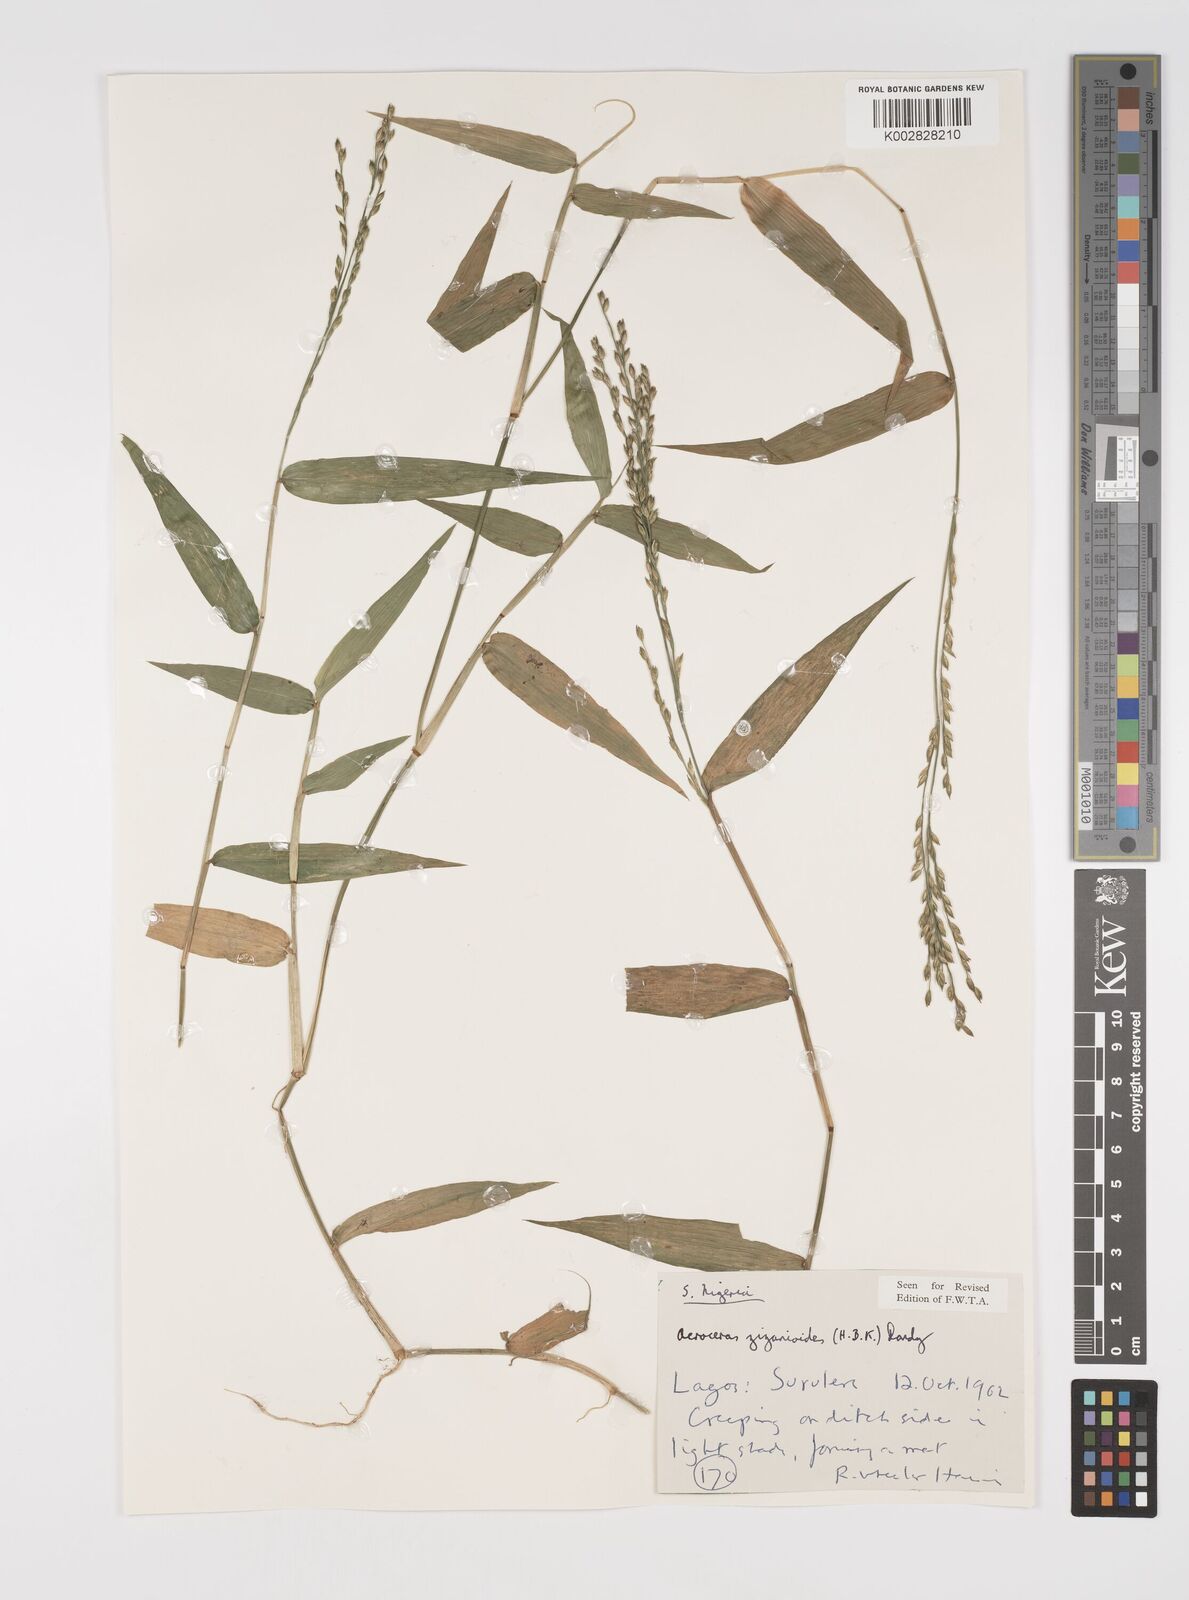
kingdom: Plantae
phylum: Tracheophyta
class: Liliopsida
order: Poales
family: Poaceae
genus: Acroceras
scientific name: Acroceras zizanioides
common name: Oat grass
